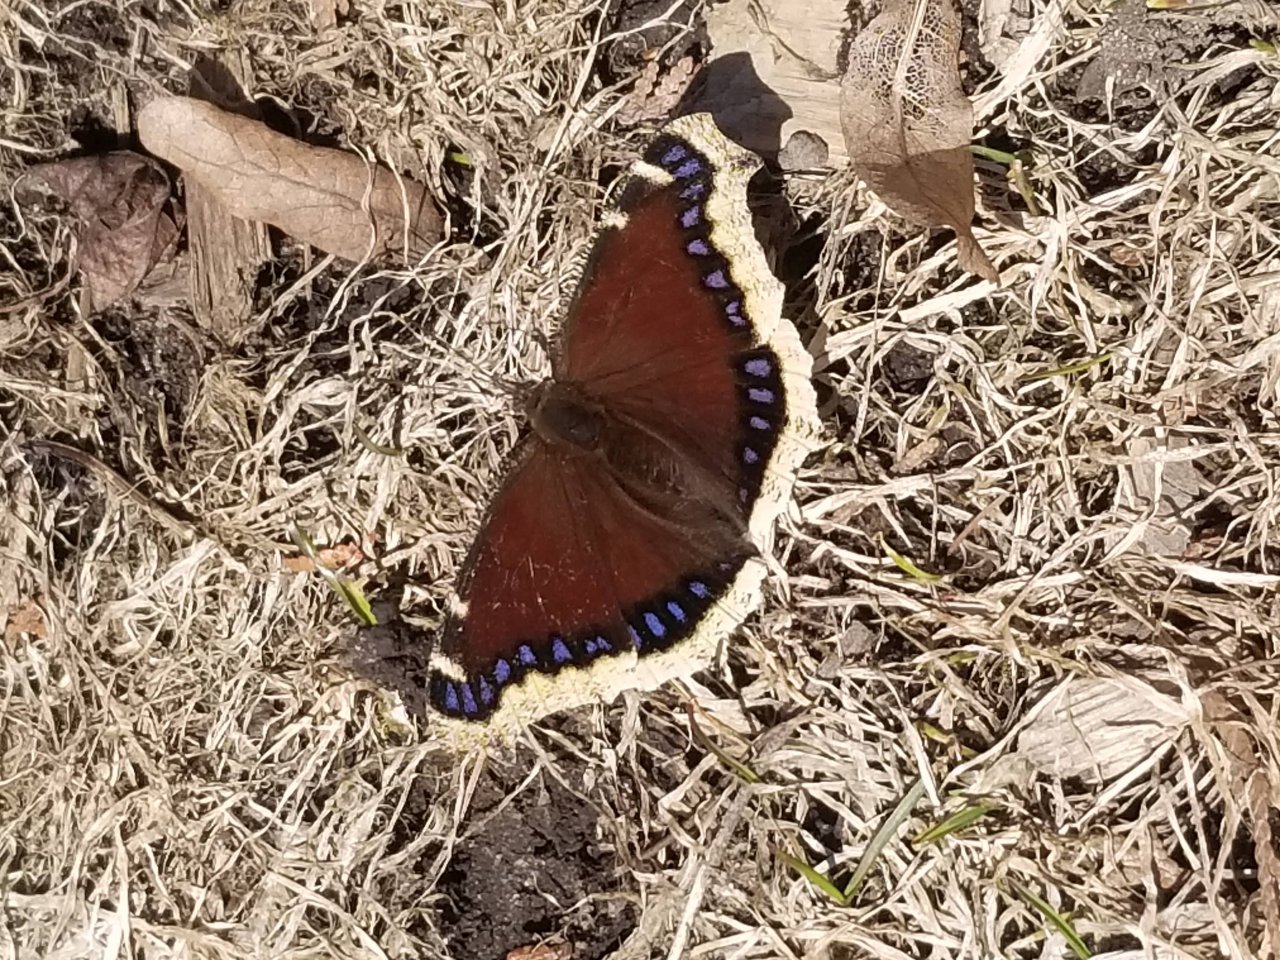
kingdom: Animalia
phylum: Arthropoda
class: Insecta
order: Lepidoptera
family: Nymphalidae
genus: Nymphalis
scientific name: Nymphalis antiopa
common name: Mourning Cloak
